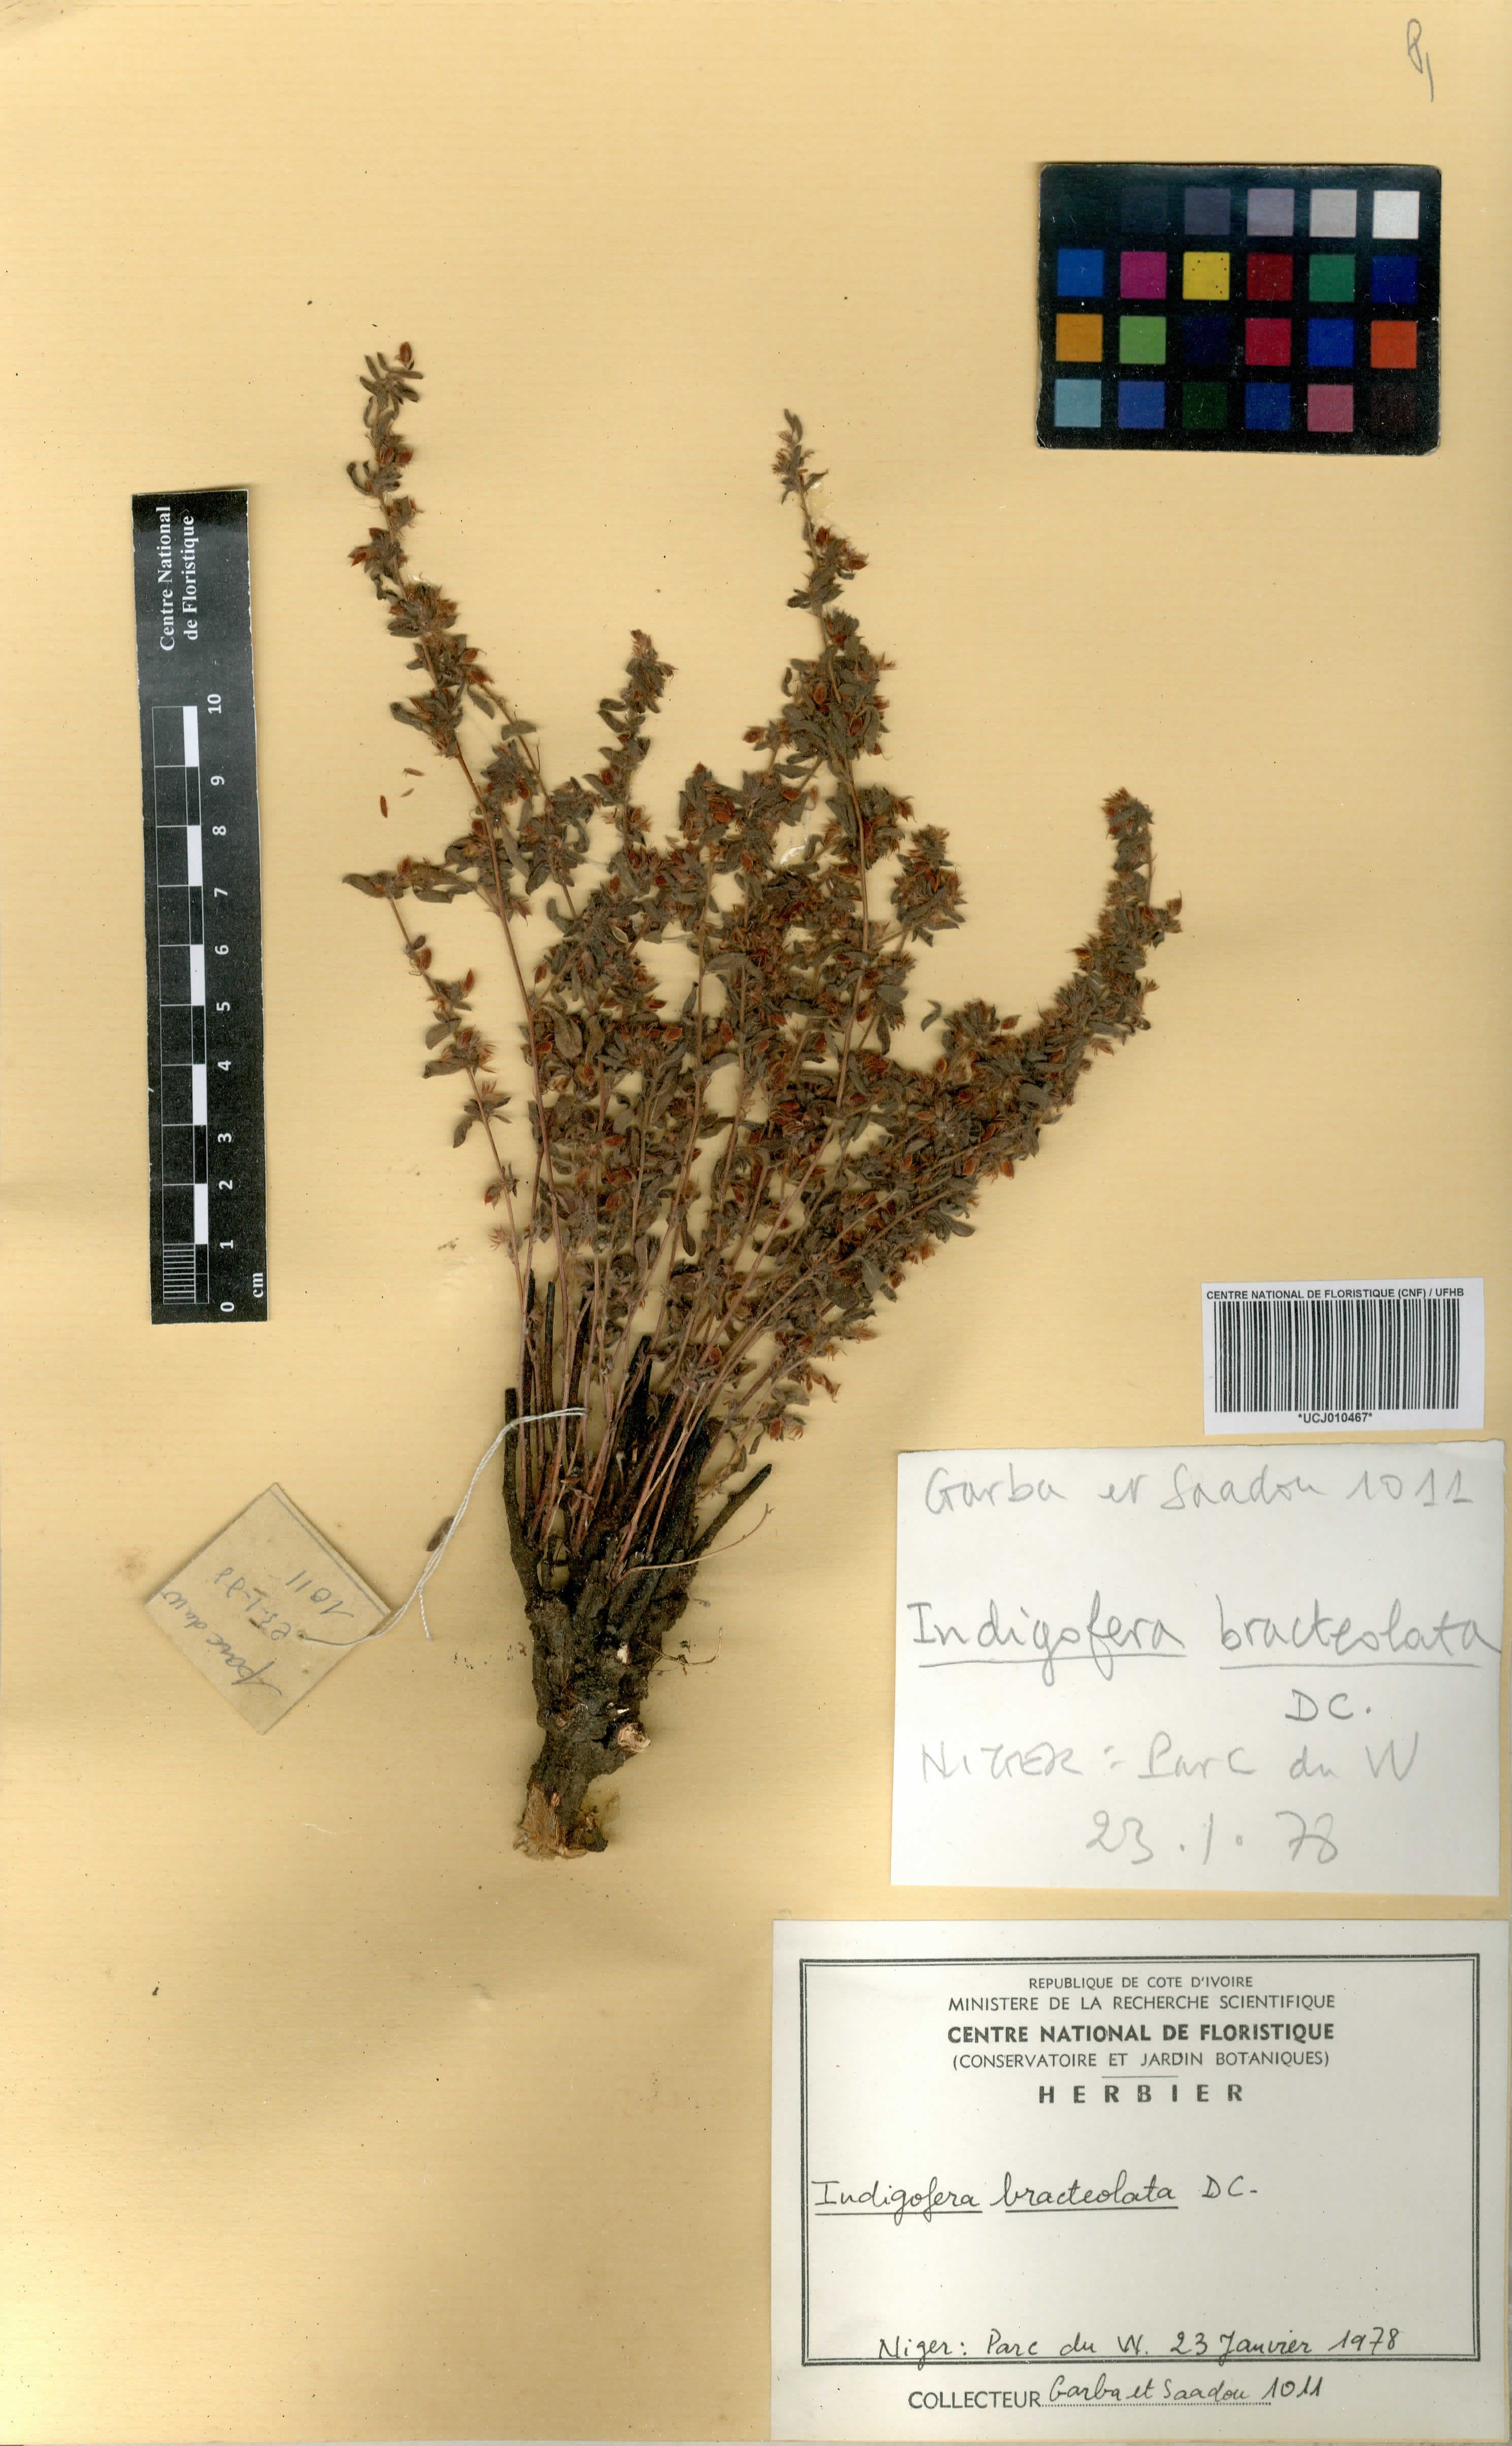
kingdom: Plantae
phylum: Tracheophyta
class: Magnoliopsida
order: Fabales
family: Fabaceae
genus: Indigofera
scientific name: Indigofera bracteolata
